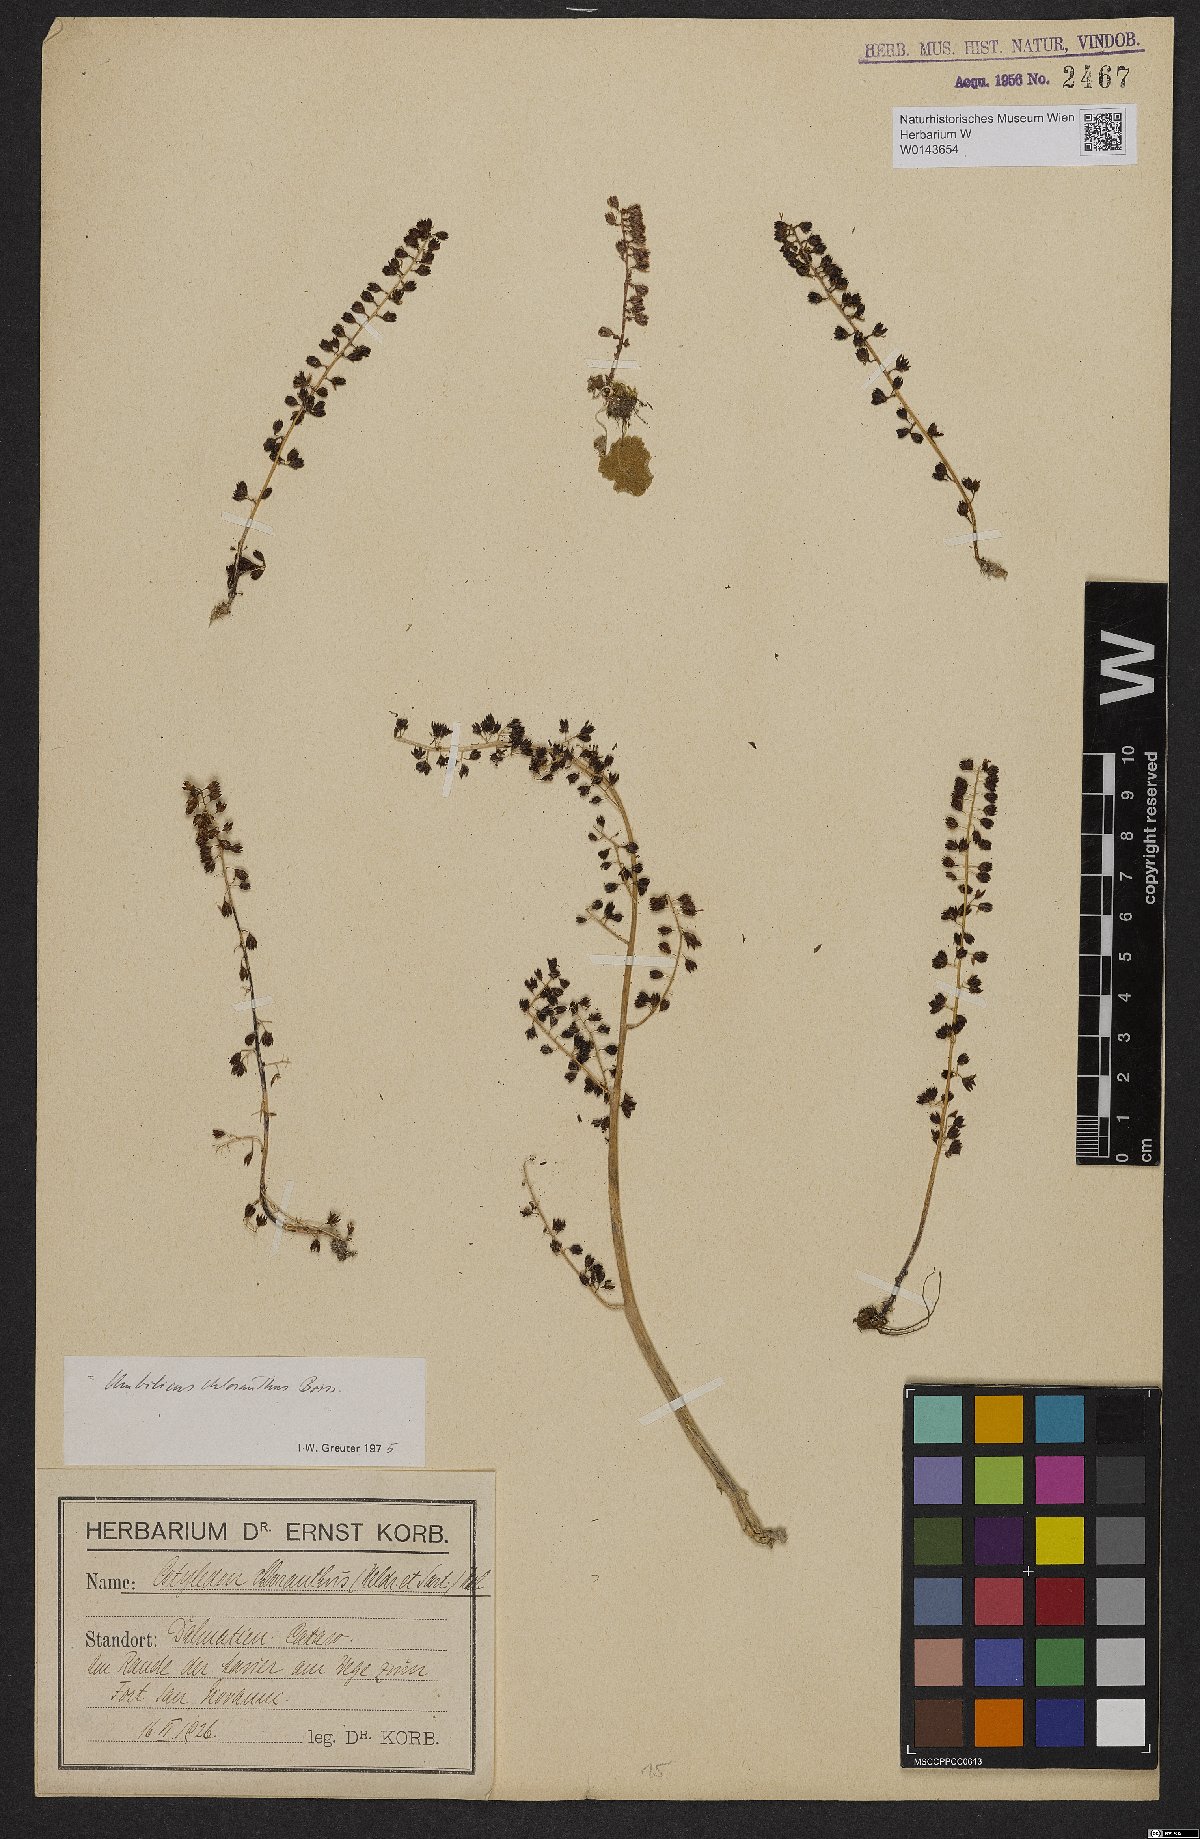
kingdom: Plantae
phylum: Tracheophyta
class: Magnoliopsida
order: Saxifragales
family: Crassulaceae
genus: Umbilicus
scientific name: Umbilicus chloranthus
